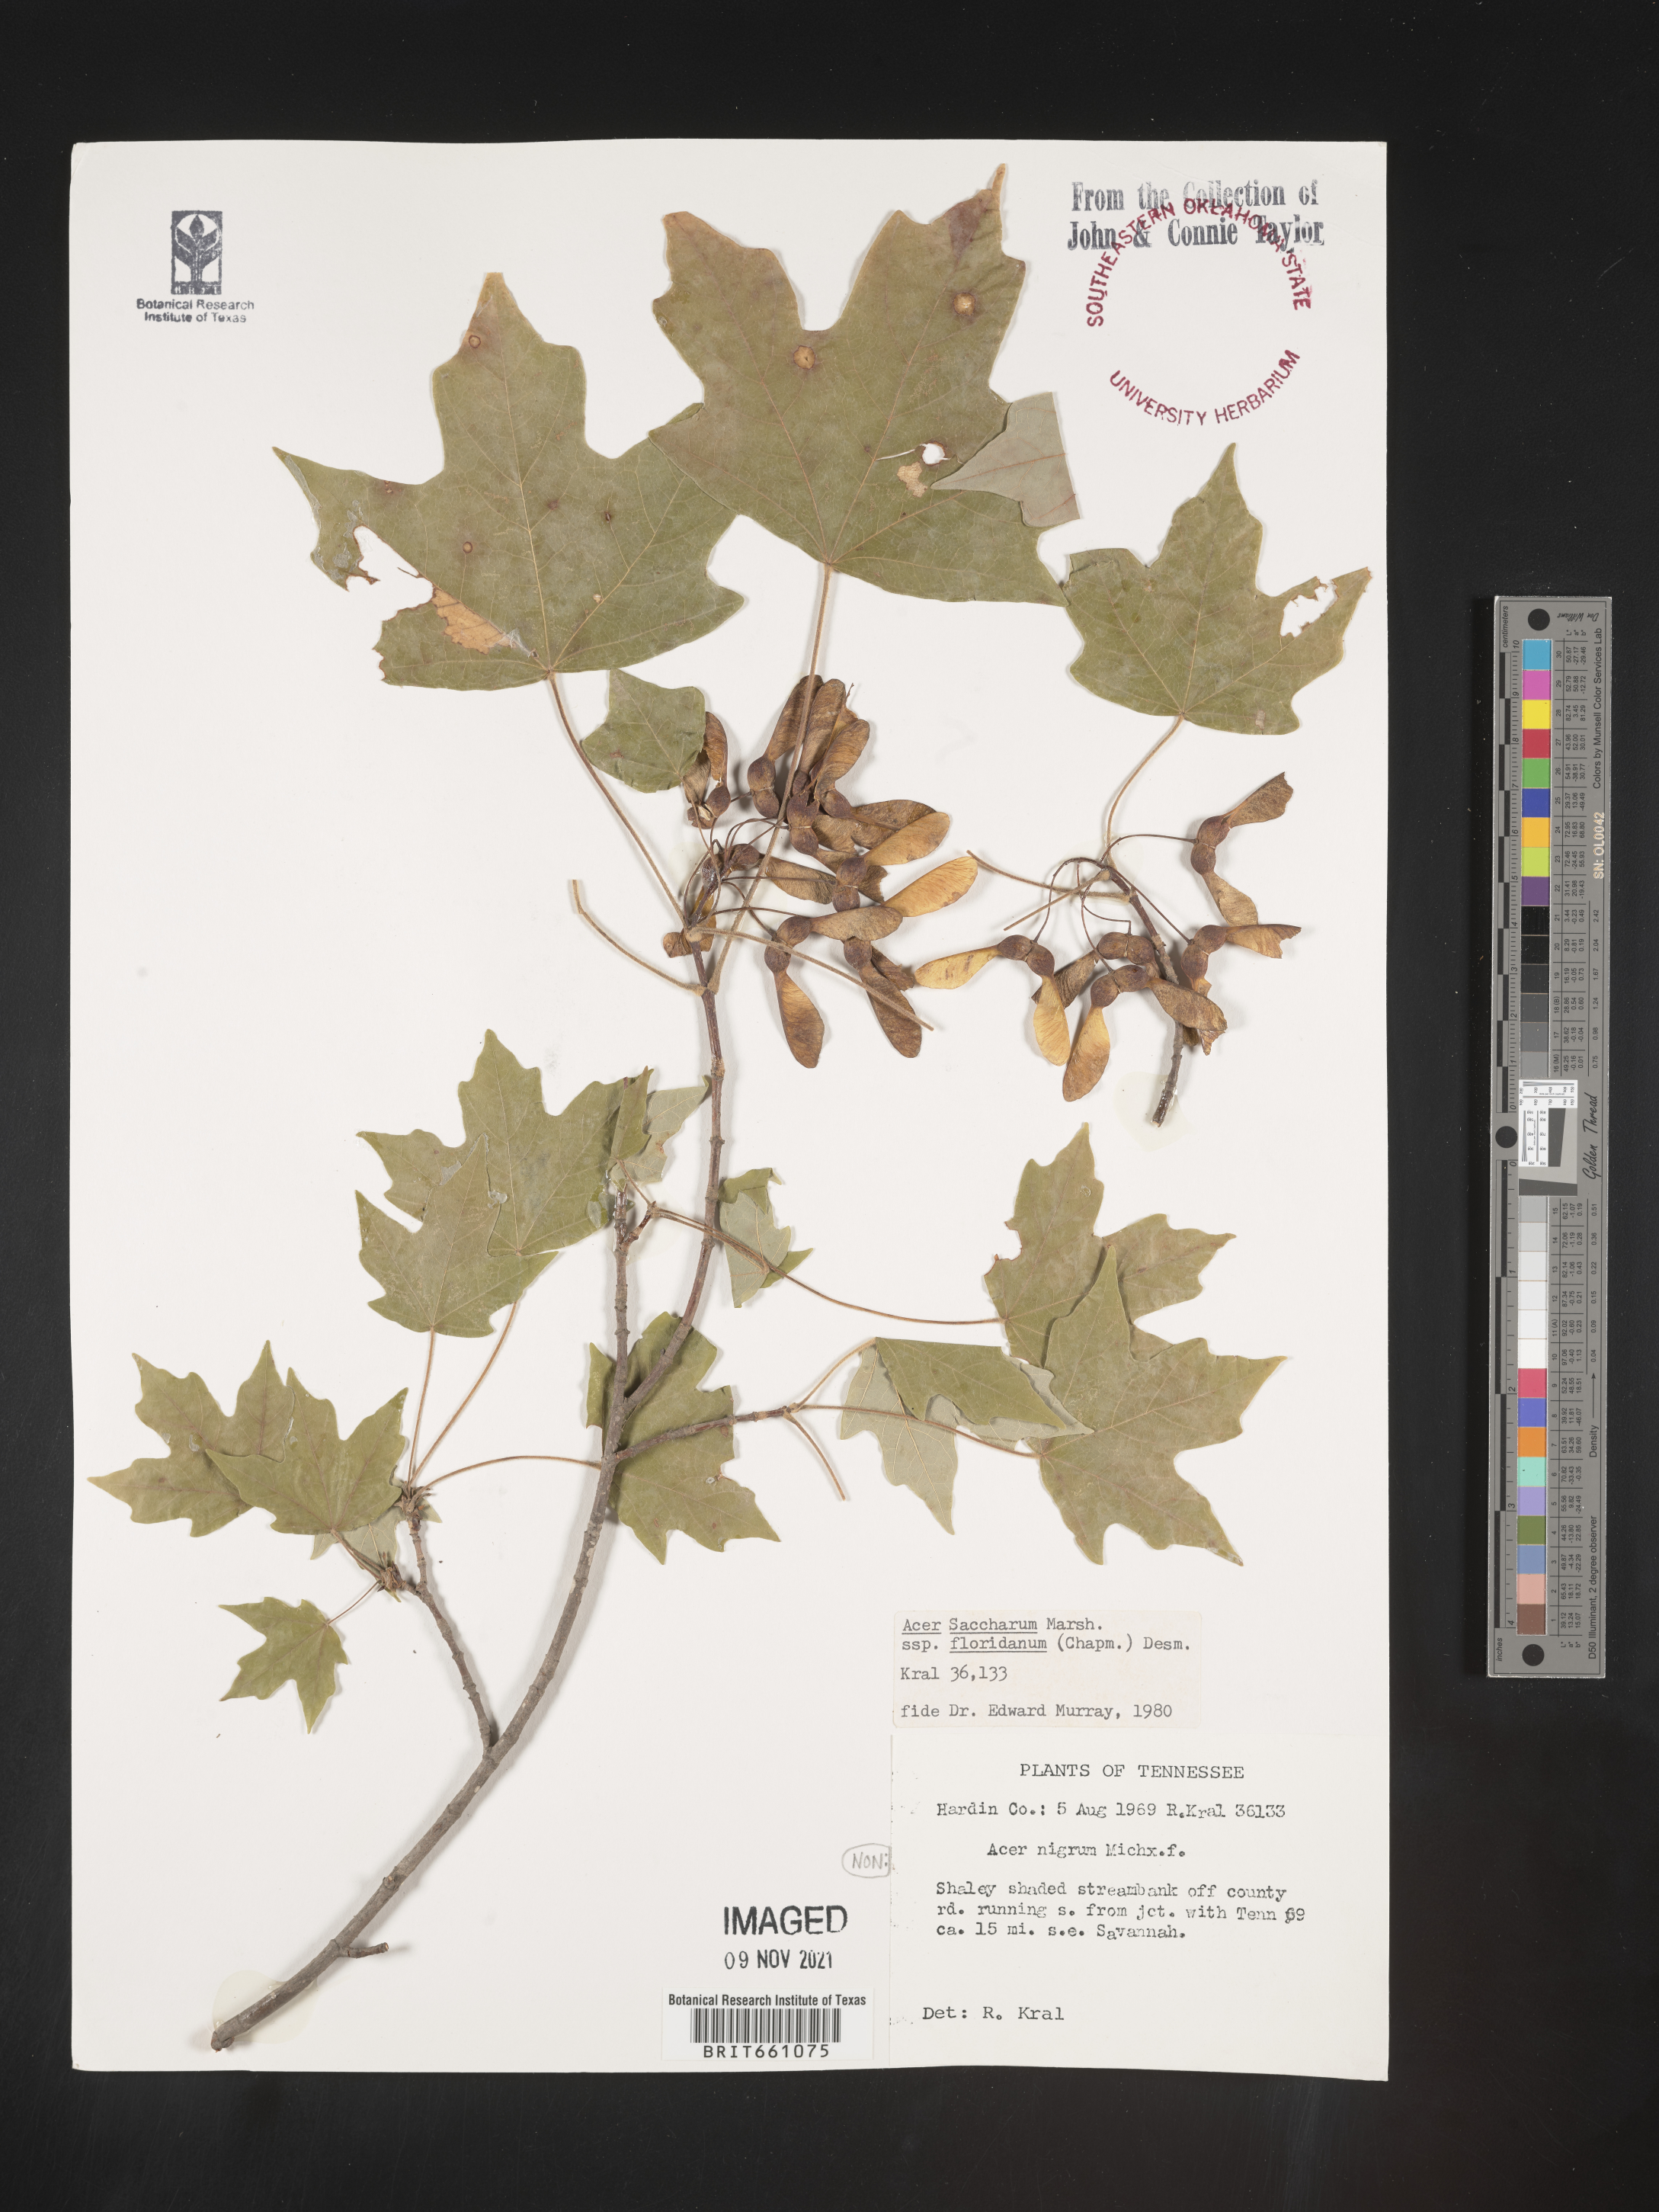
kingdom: Plantae
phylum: Tracheophyta
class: Magnoliopsida
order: Sapindales
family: Sapindaceae
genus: Acer
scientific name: Acer barbatum
